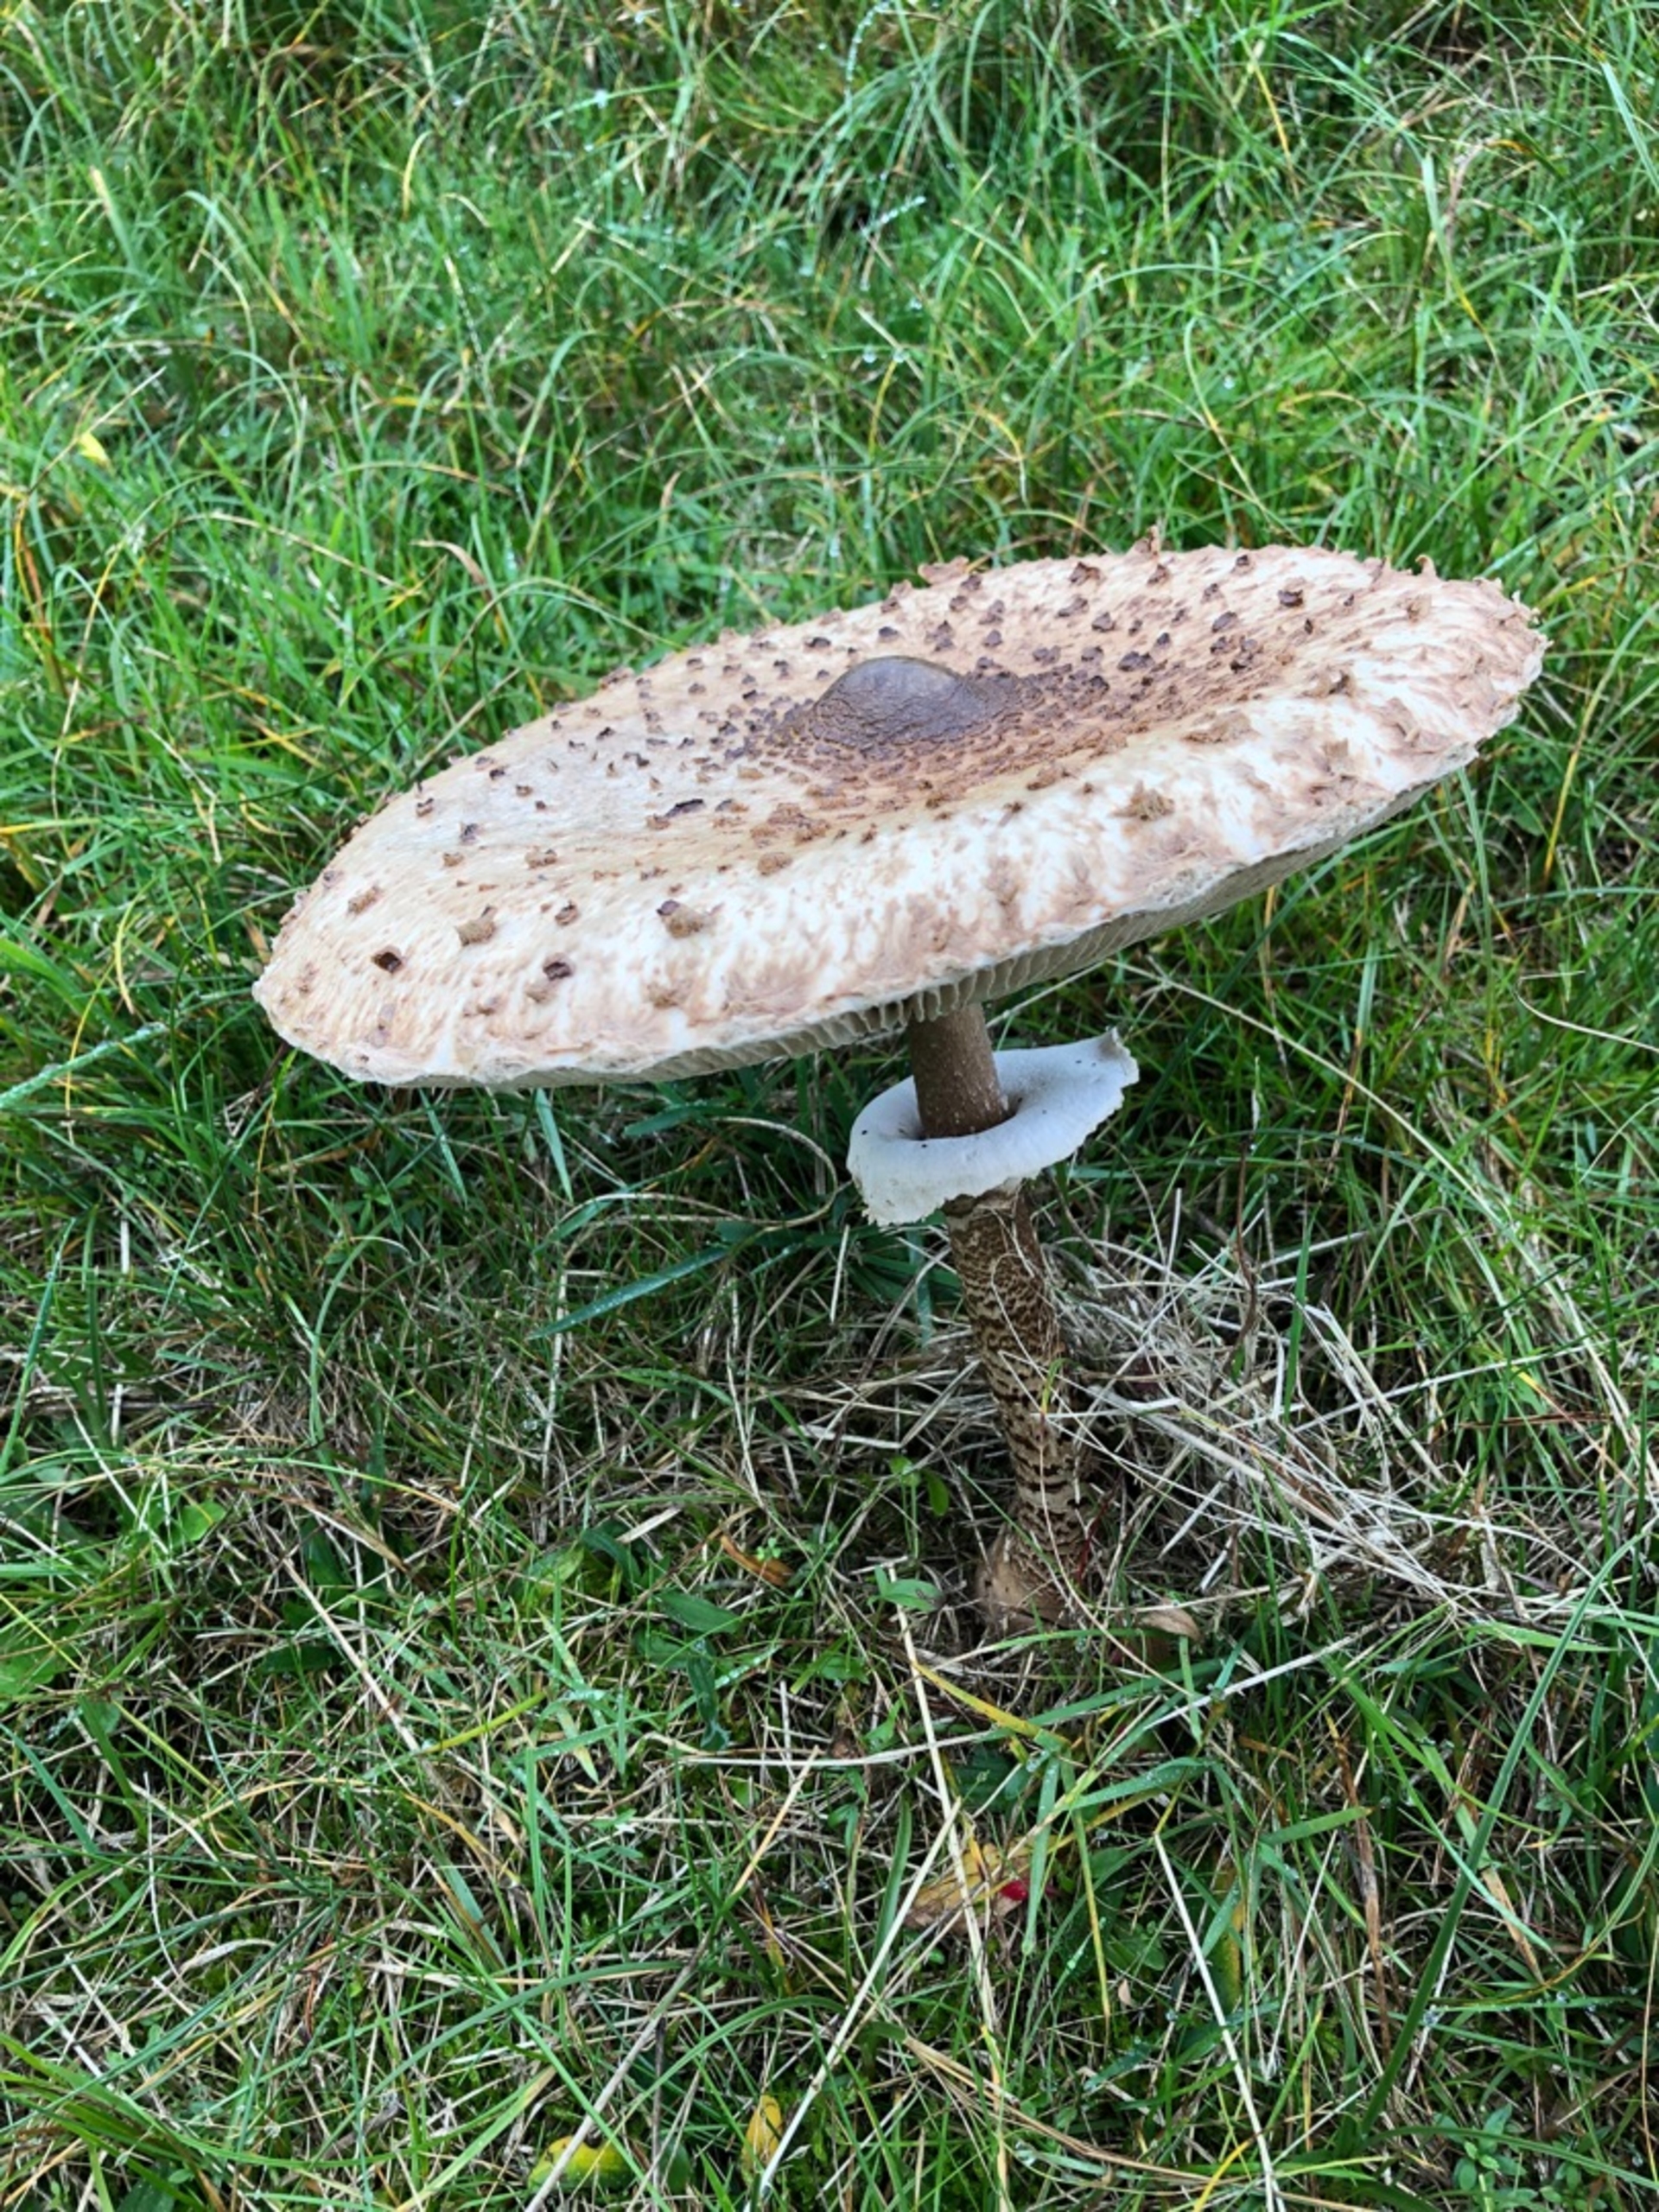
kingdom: Fungi
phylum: Basidiomycota
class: Agaricomycetes
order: Agaricales
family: Agaricaceae
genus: Macrolepiota
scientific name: Macrolepiota procera
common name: Stor kæmpeparasolhat
